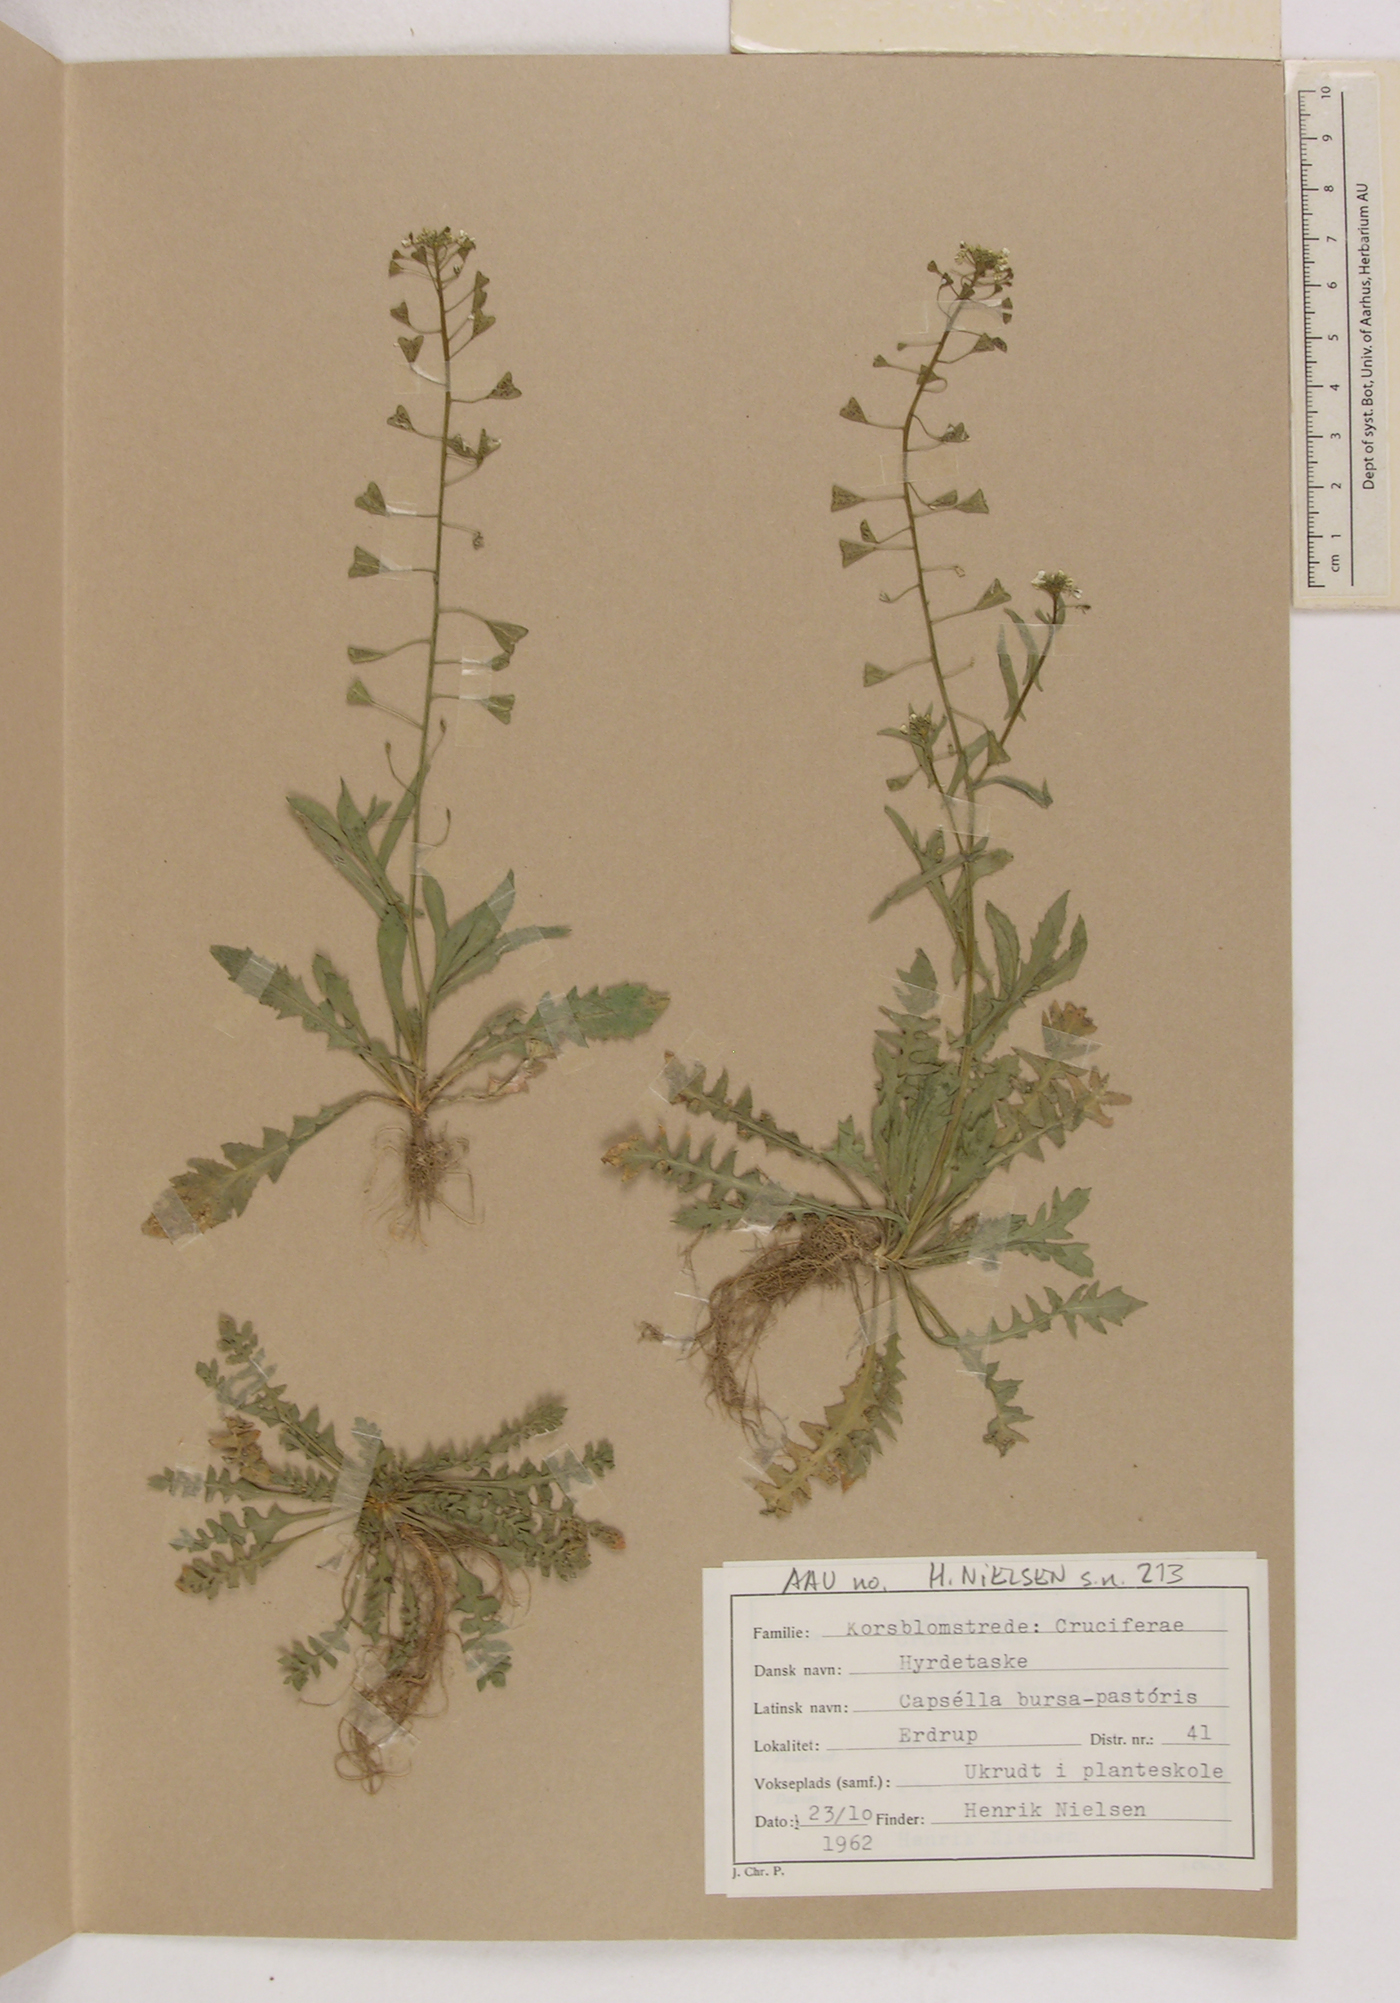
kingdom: Plantae
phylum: Tracheophyta
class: Magnoliopsida
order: Brassicales
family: Brassicaceae
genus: Capsella
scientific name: Capsella bursa-pastoris
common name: Shepherd's purse
